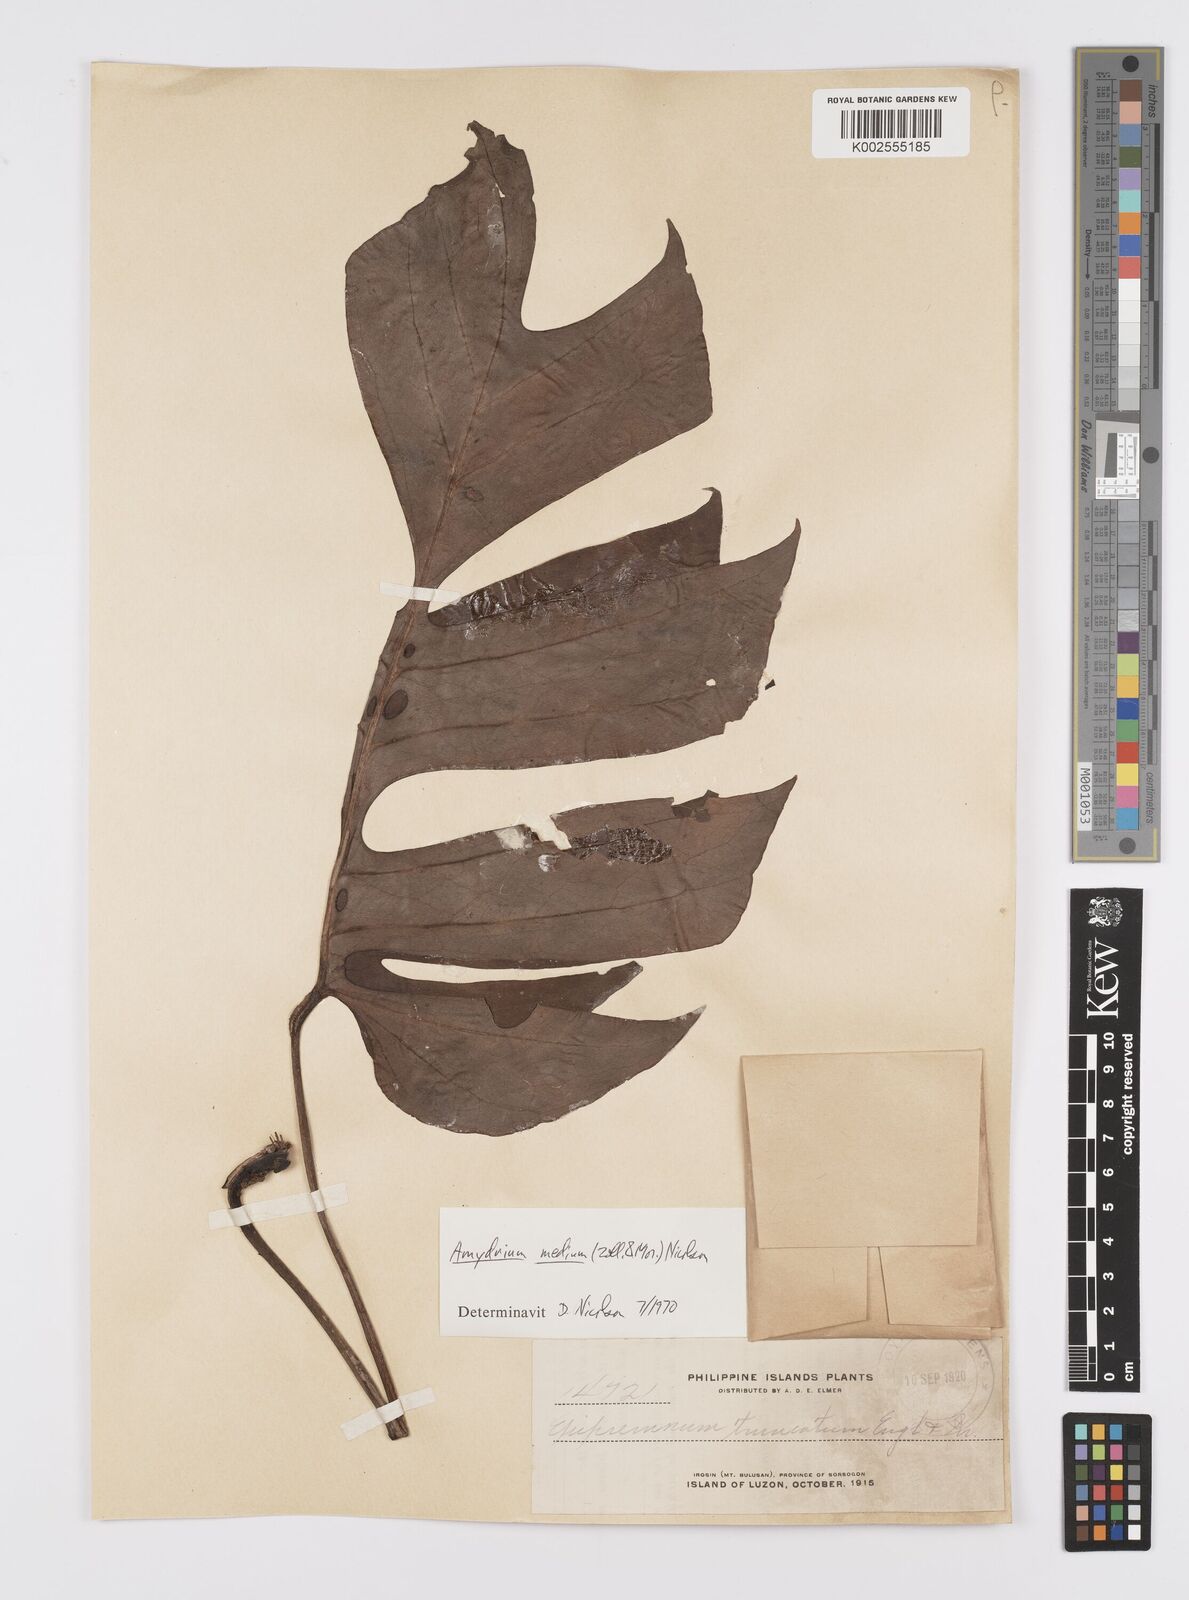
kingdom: Plantae
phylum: Tracheophyta
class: Liliopsida
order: Alismatales
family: Araceae
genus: Amydrium
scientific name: Amydrium medium
